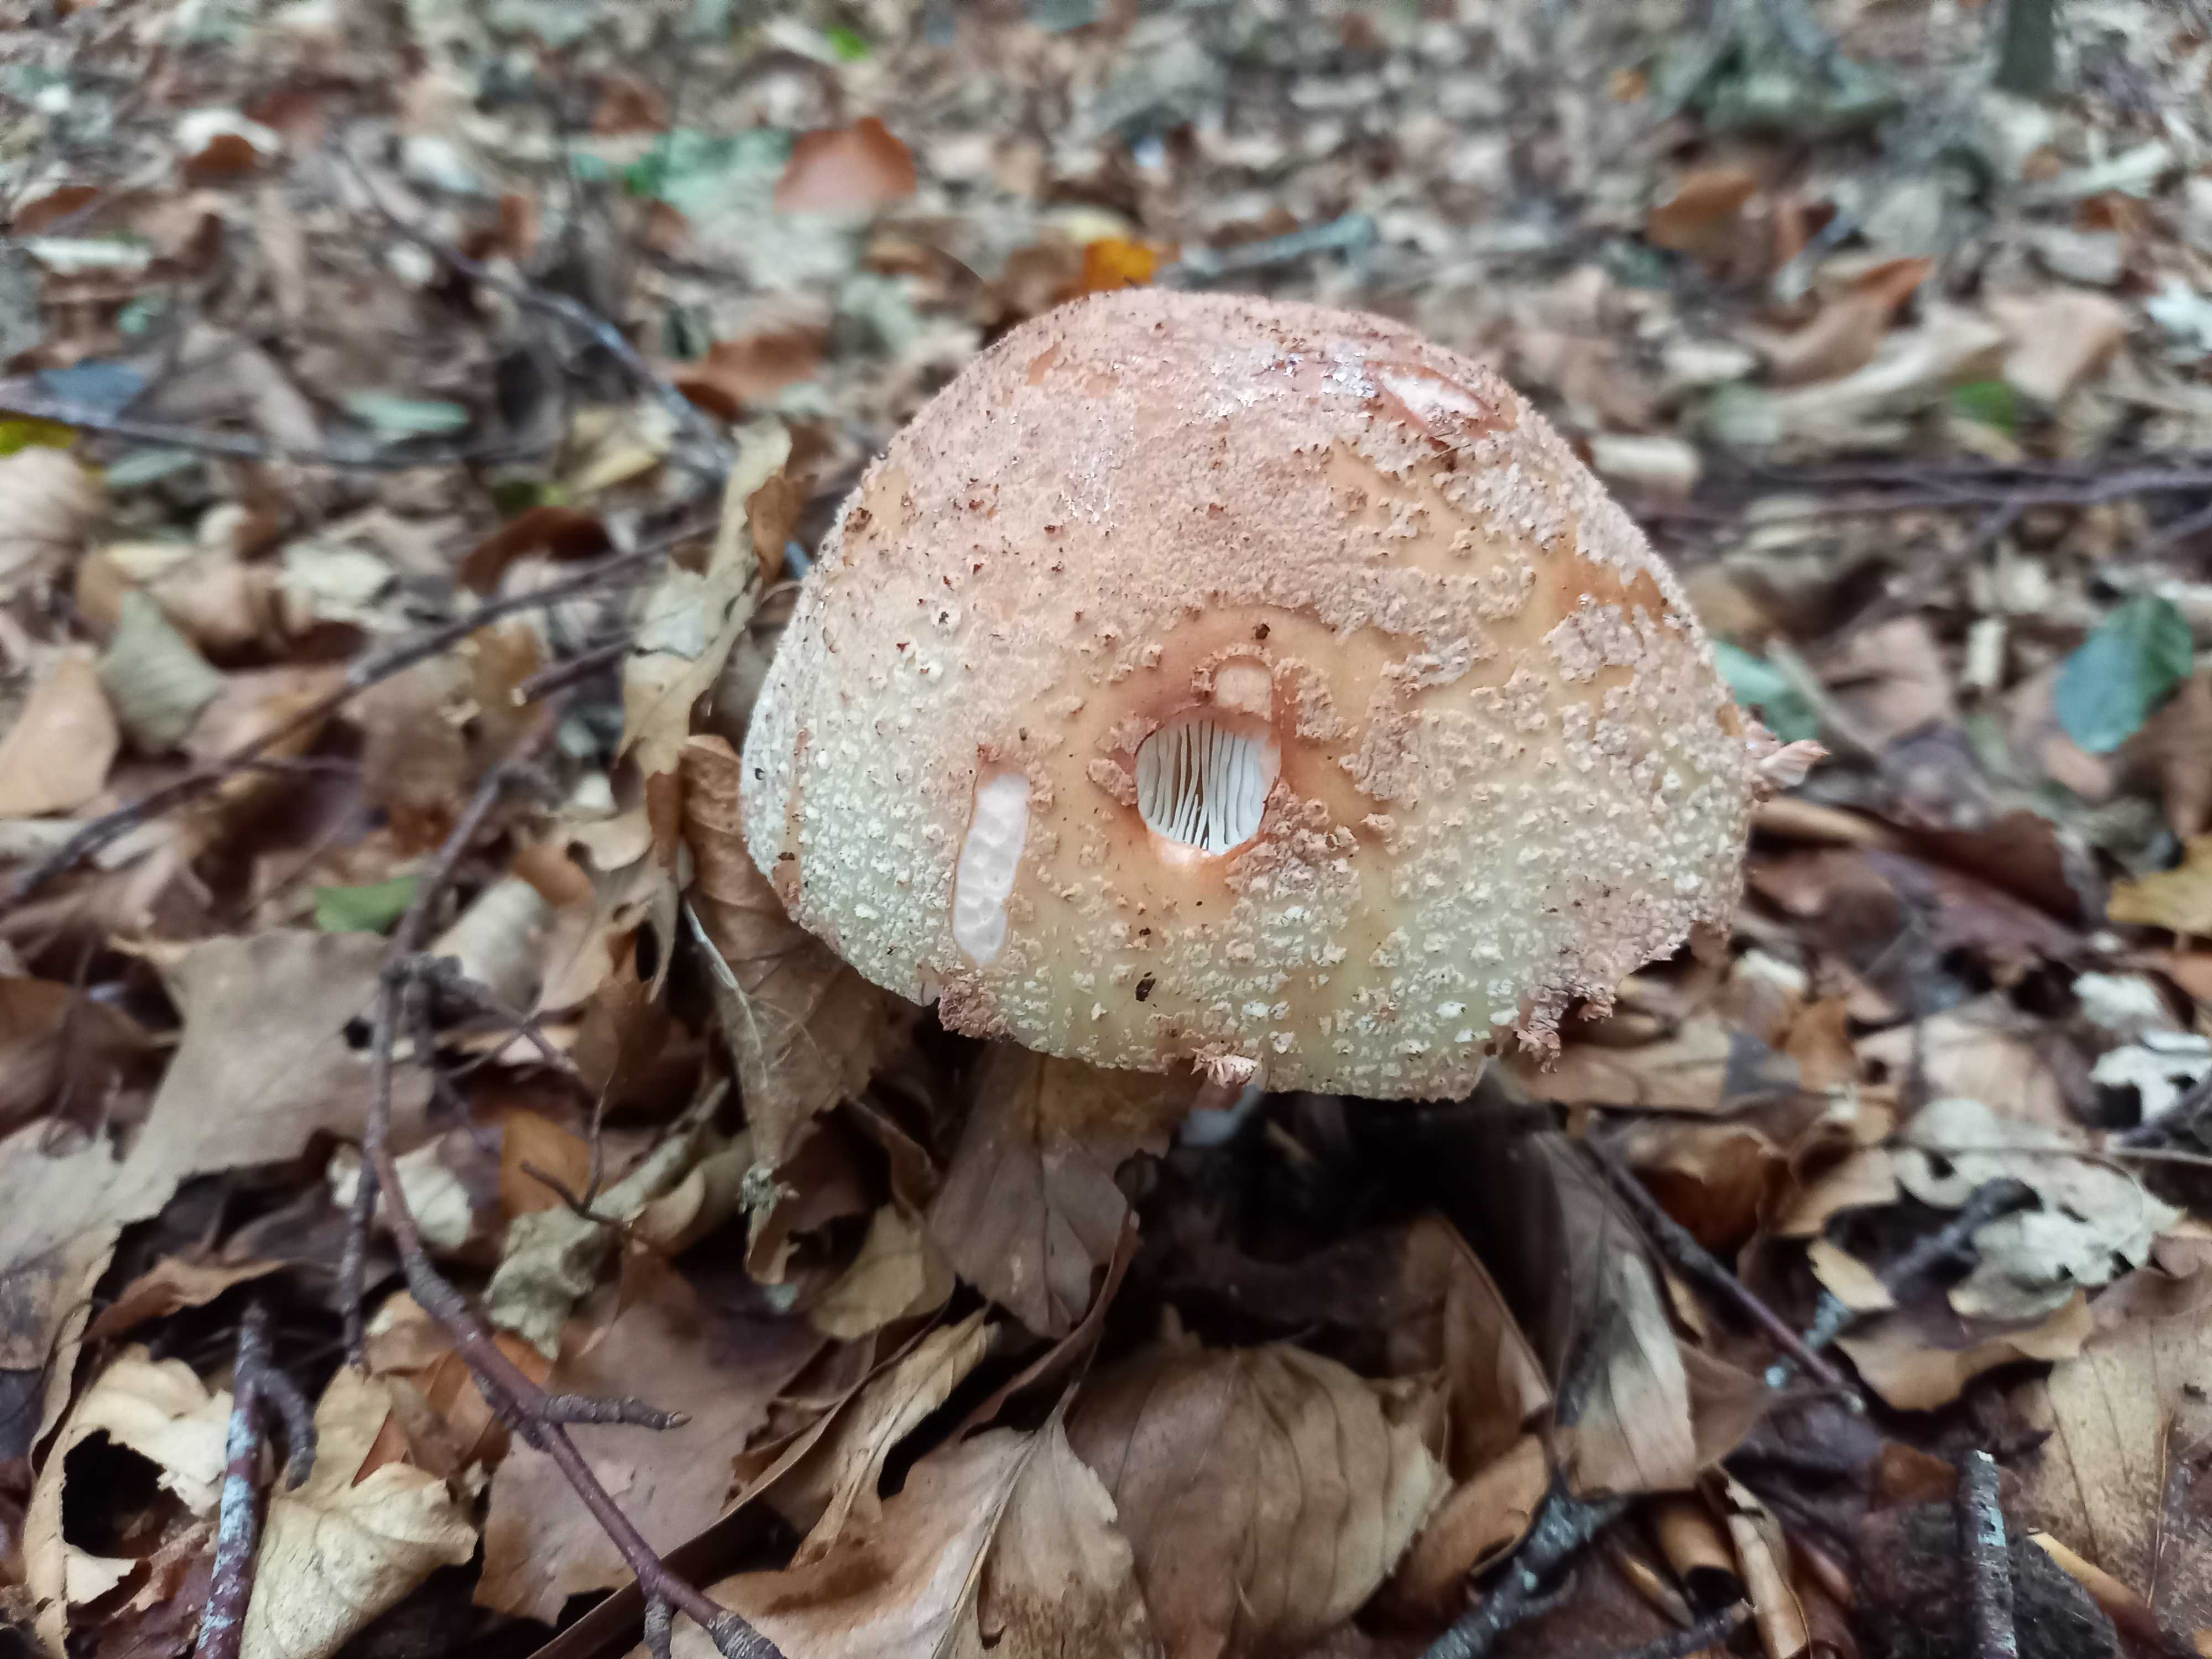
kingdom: Fungi
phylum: Basidiomycota
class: Agaricomycetes
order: Agaricales
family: Amanitaceae
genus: Amanita
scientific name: Amanita rubescens
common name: rødmende fluesvamp
